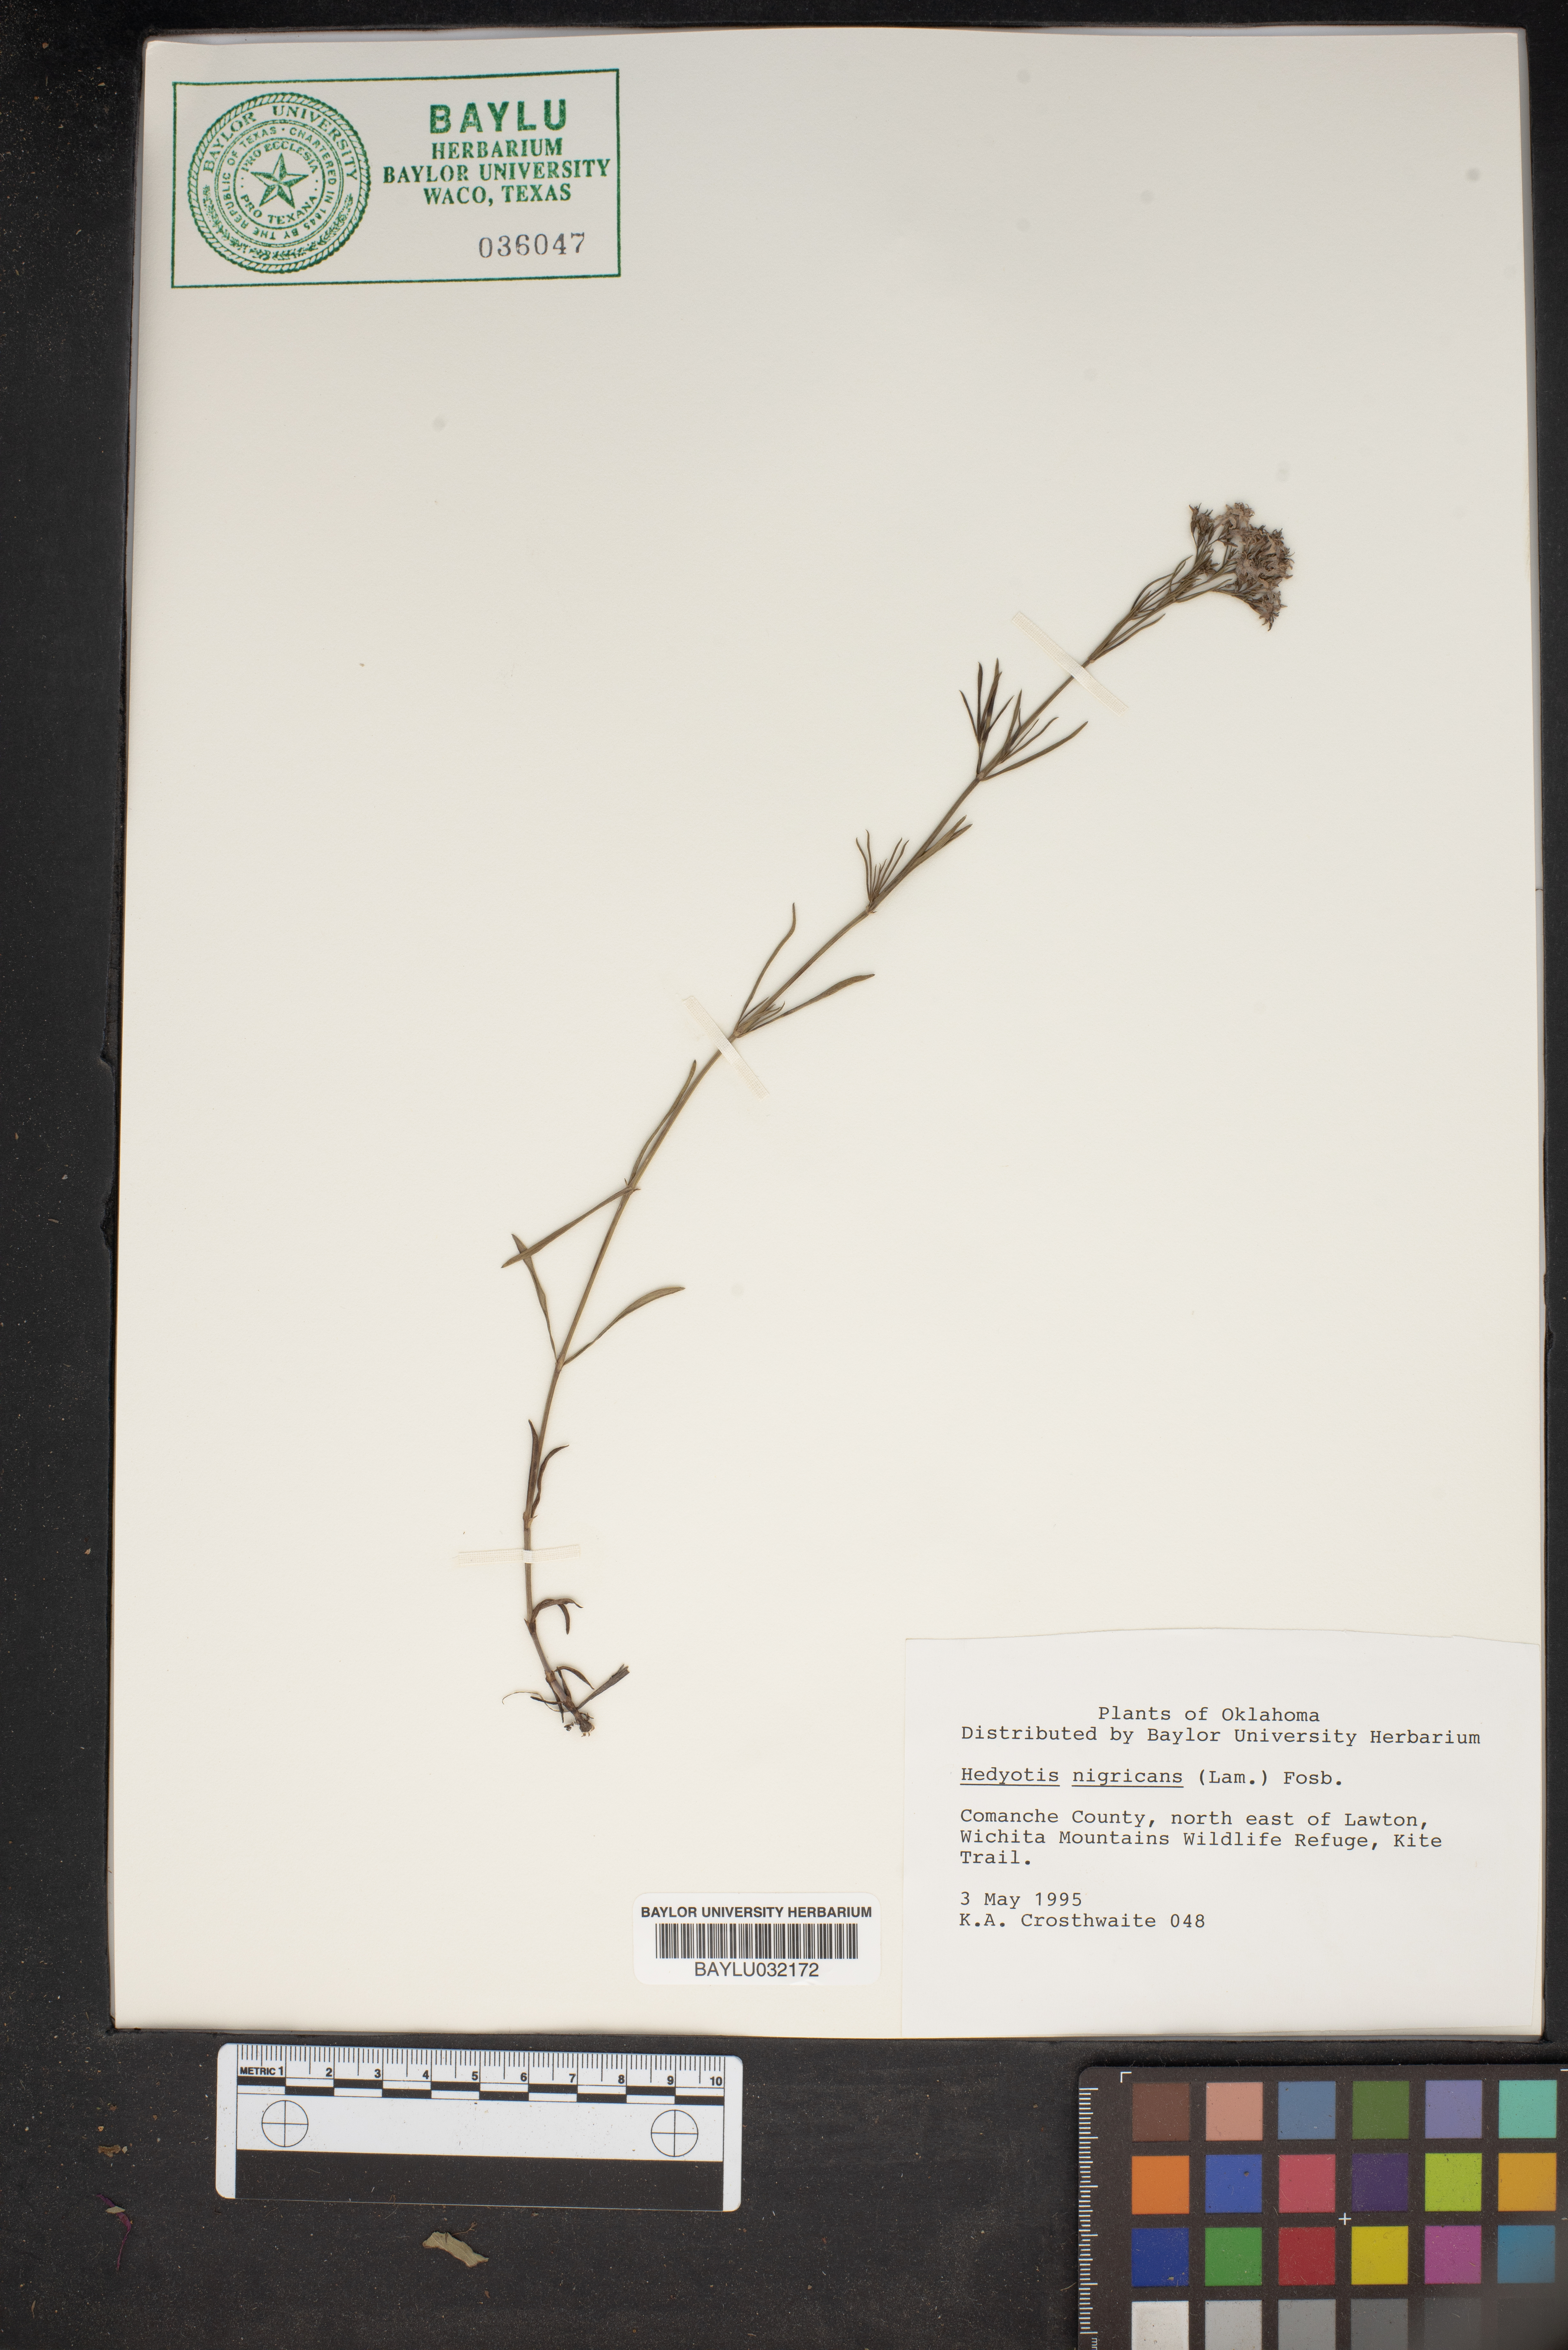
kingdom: Plantae
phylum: Tracheophyta
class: Magnoliopsida
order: Gentianales
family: Rubiaceae
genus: Stenaria
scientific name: Stenaria nigricans
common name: Diamondflowers
